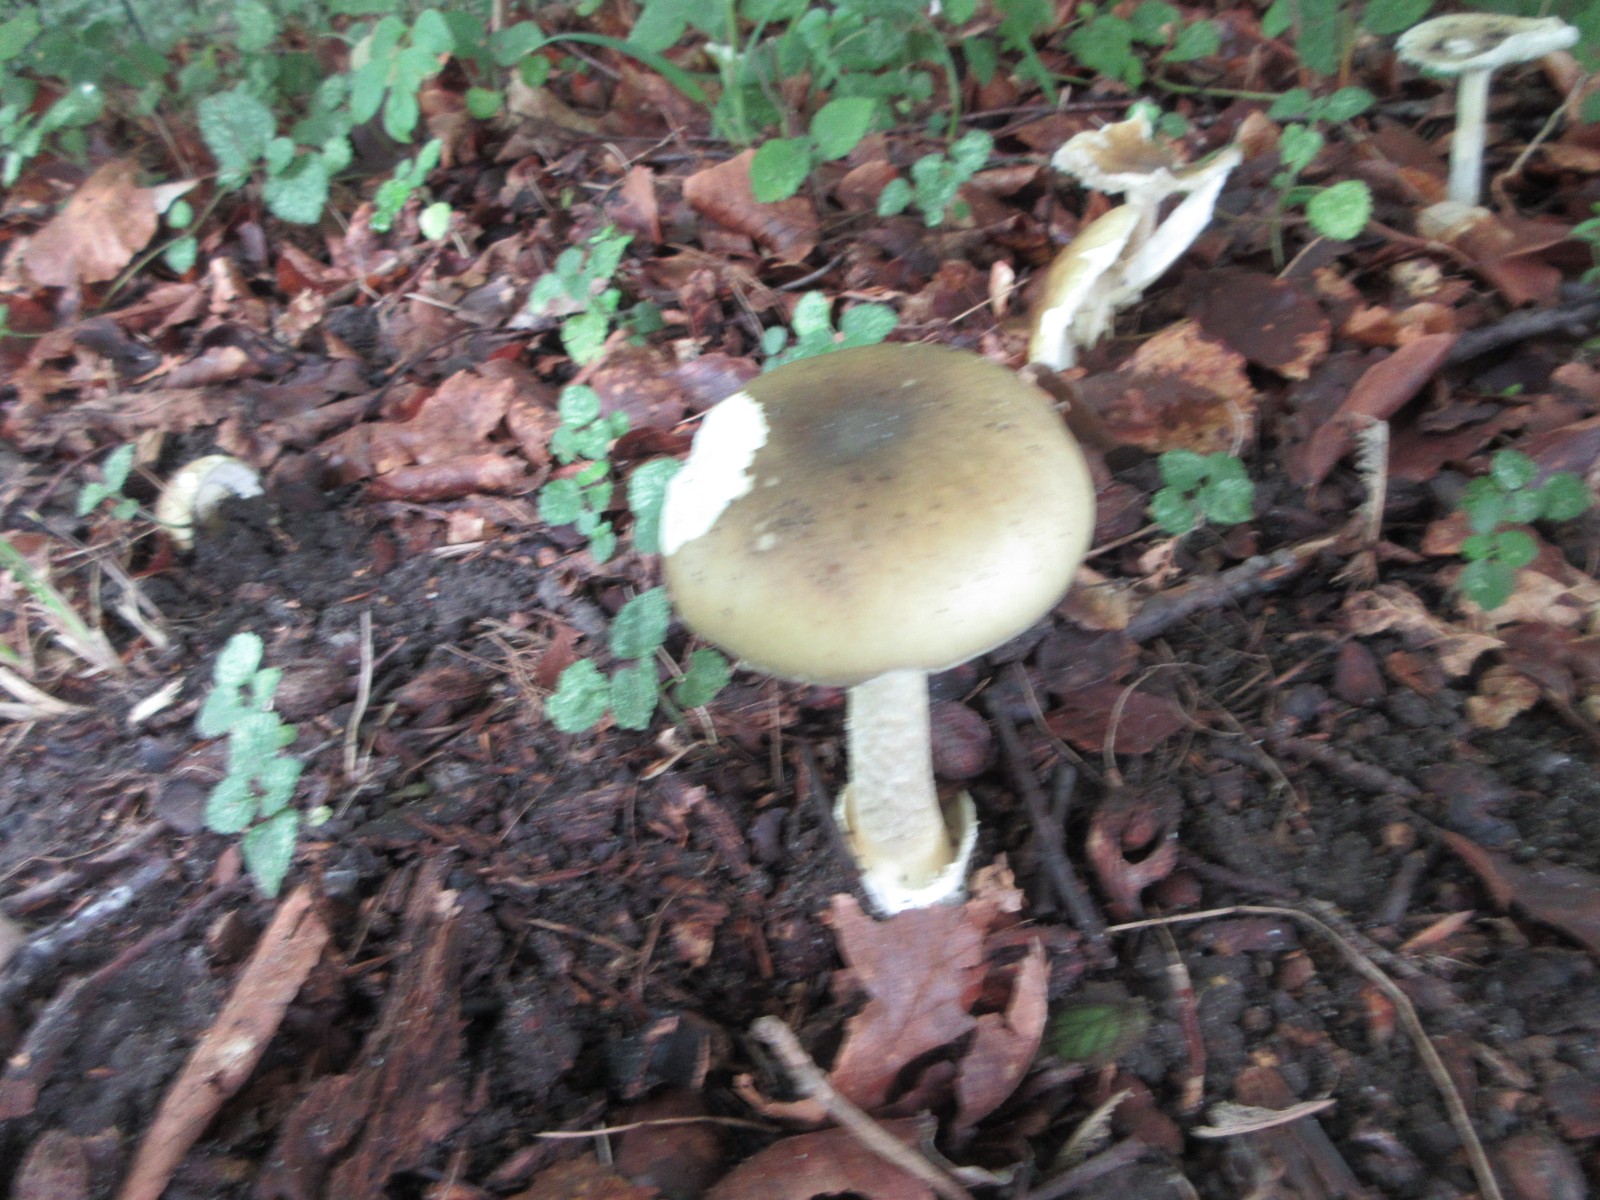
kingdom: Fungi
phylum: Basidiomycota
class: Agaricomycetes
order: Agaricales
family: Amanitaceae
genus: Amanita
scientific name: Amanita phalloides
